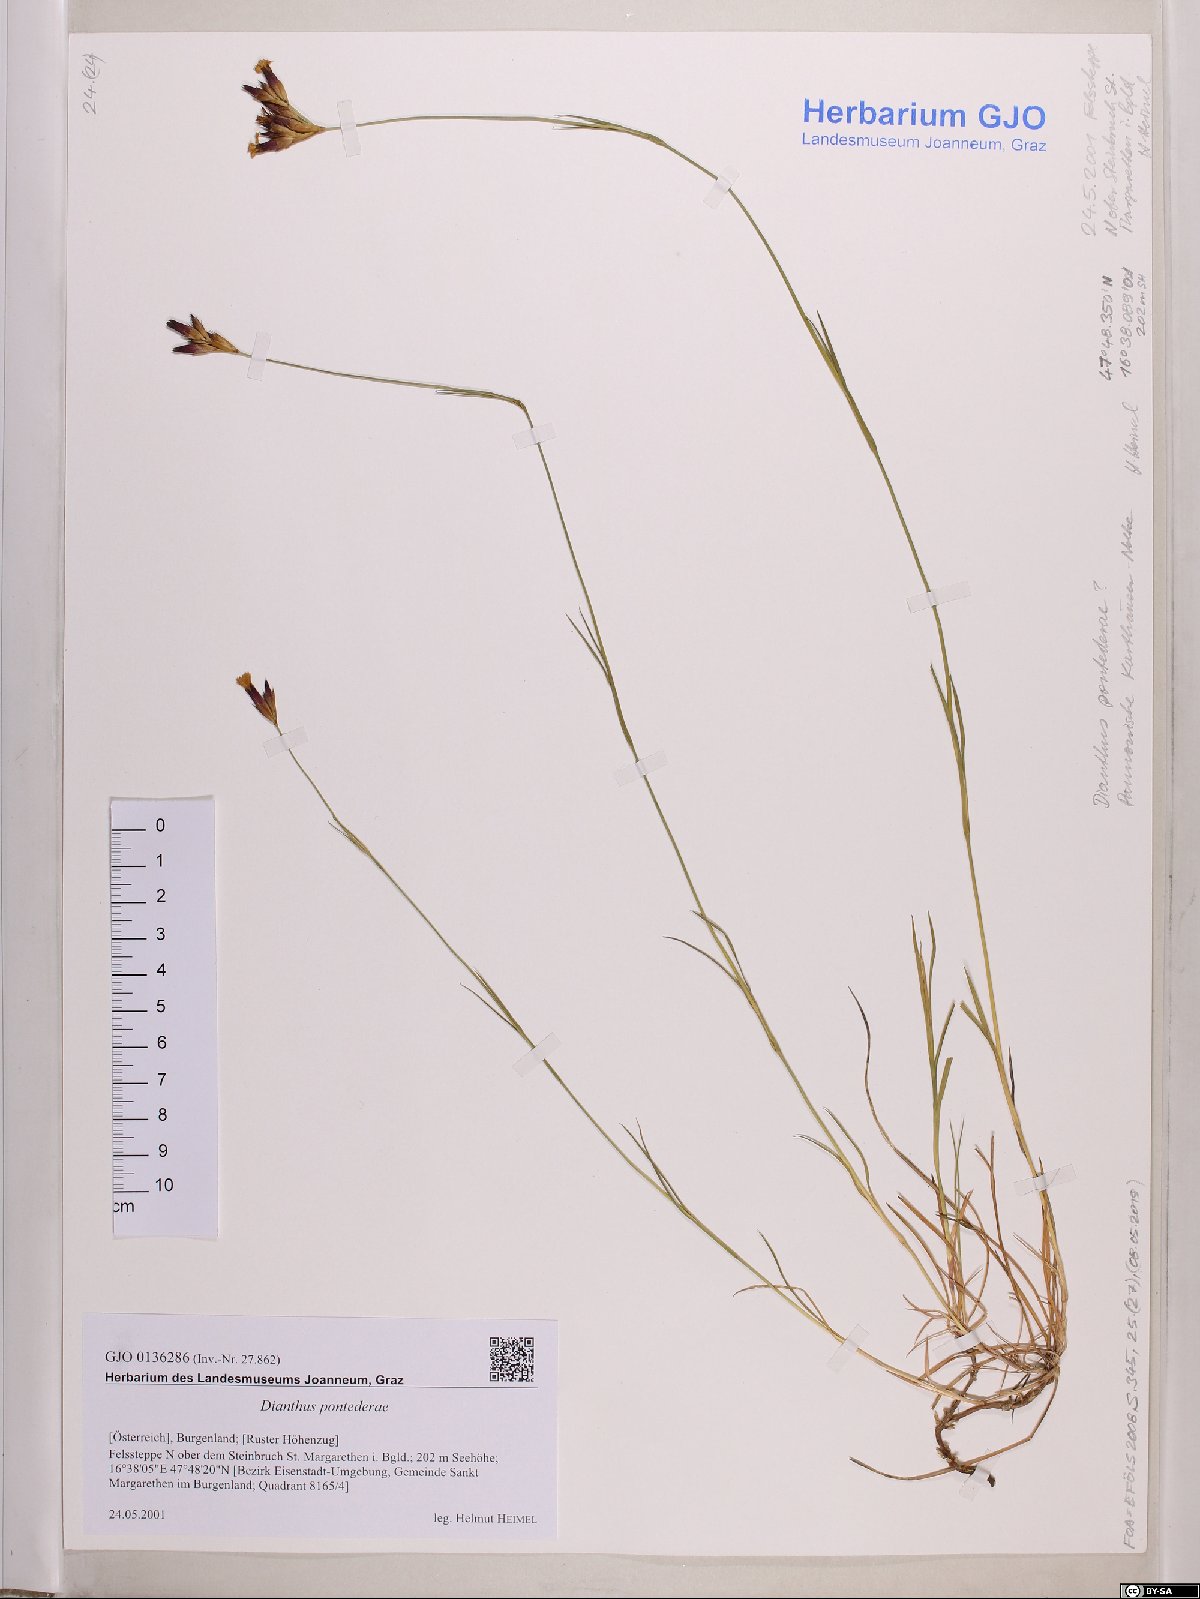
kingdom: Plantae
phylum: Tracheophyta
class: Magnoliopsida
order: Caryophyllales
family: Caryophyllaceae
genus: Dianthus
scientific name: Dianthus pontederae
